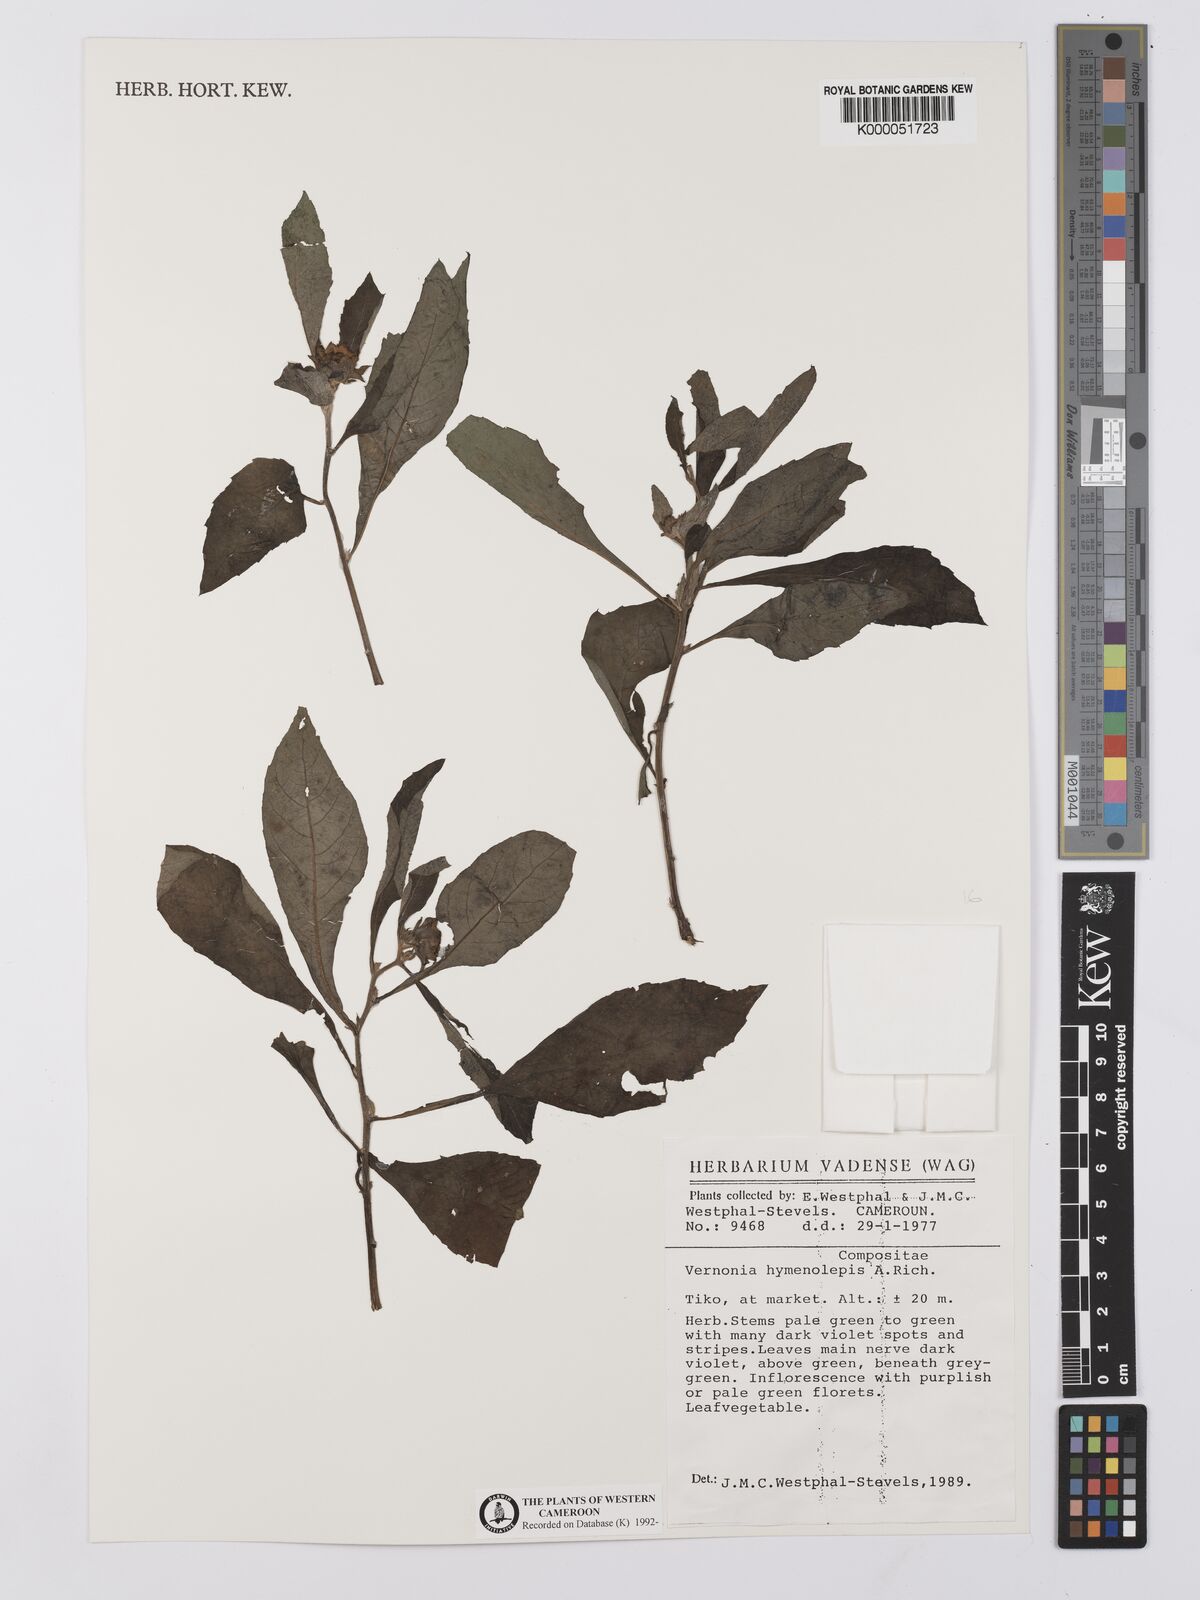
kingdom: Plantae
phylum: Tracheophyta
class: Magnoliopsida
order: Asterales
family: Asteraceae
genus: Baccharoides
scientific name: Baccharoides hymenolepis
